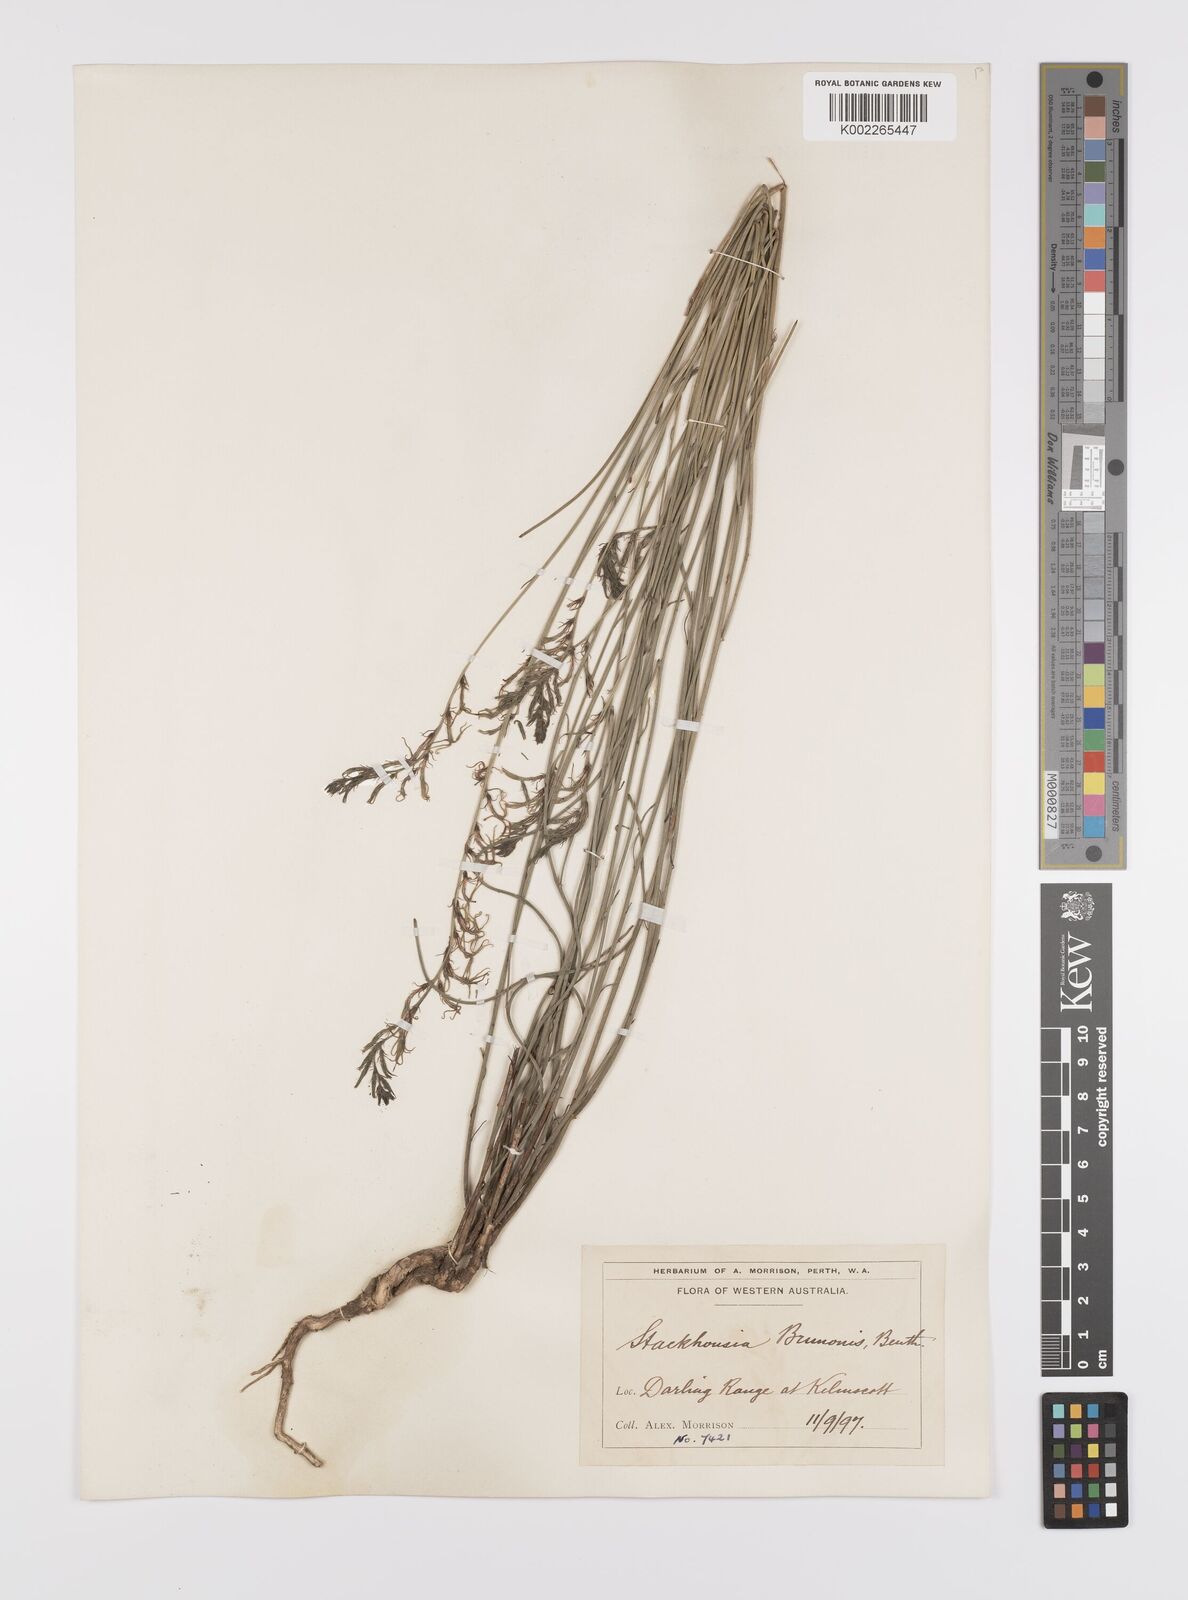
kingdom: Plantae
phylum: Tracheophyta
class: Magnoliopsida
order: Celastrales
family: Celastraceae
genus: Tripterococcus
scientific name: Tripterococcus brunonis
